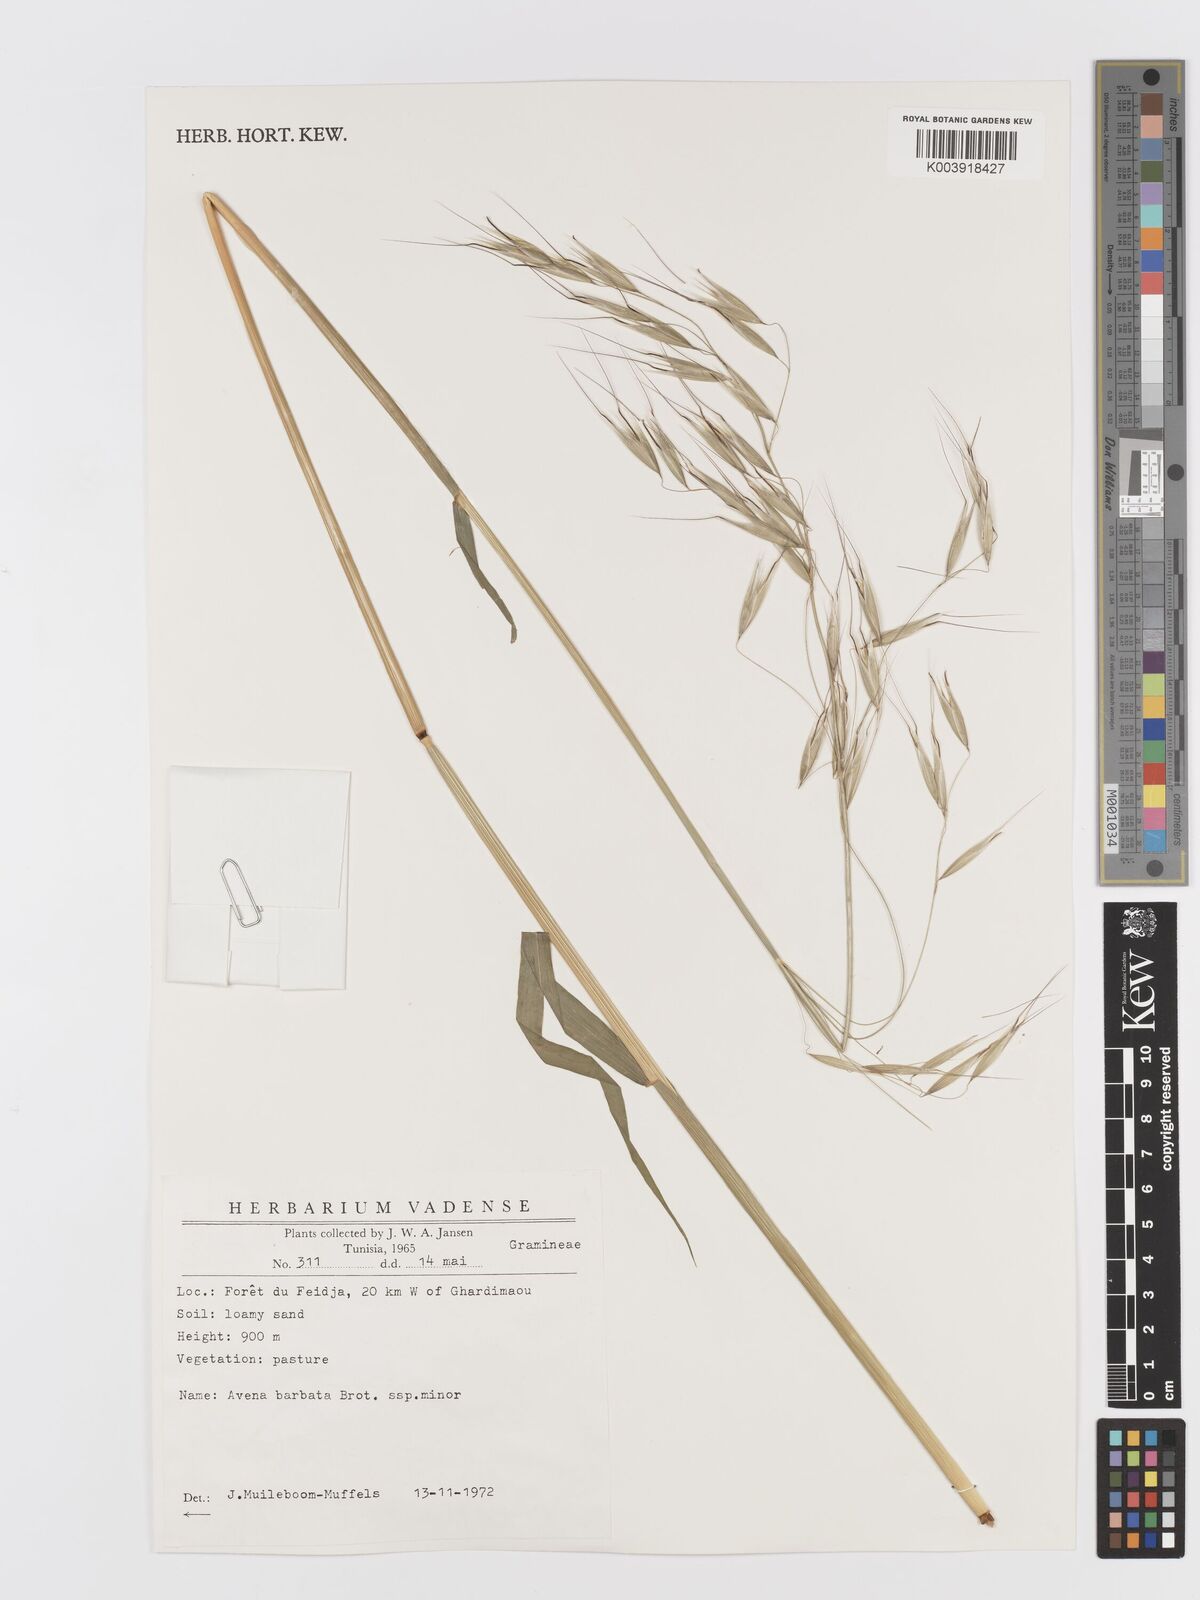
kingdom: Plantae
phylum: Tracheophyta
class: Liliopsida
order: Poales
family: Poaceae
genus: Avena
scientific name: Avena
